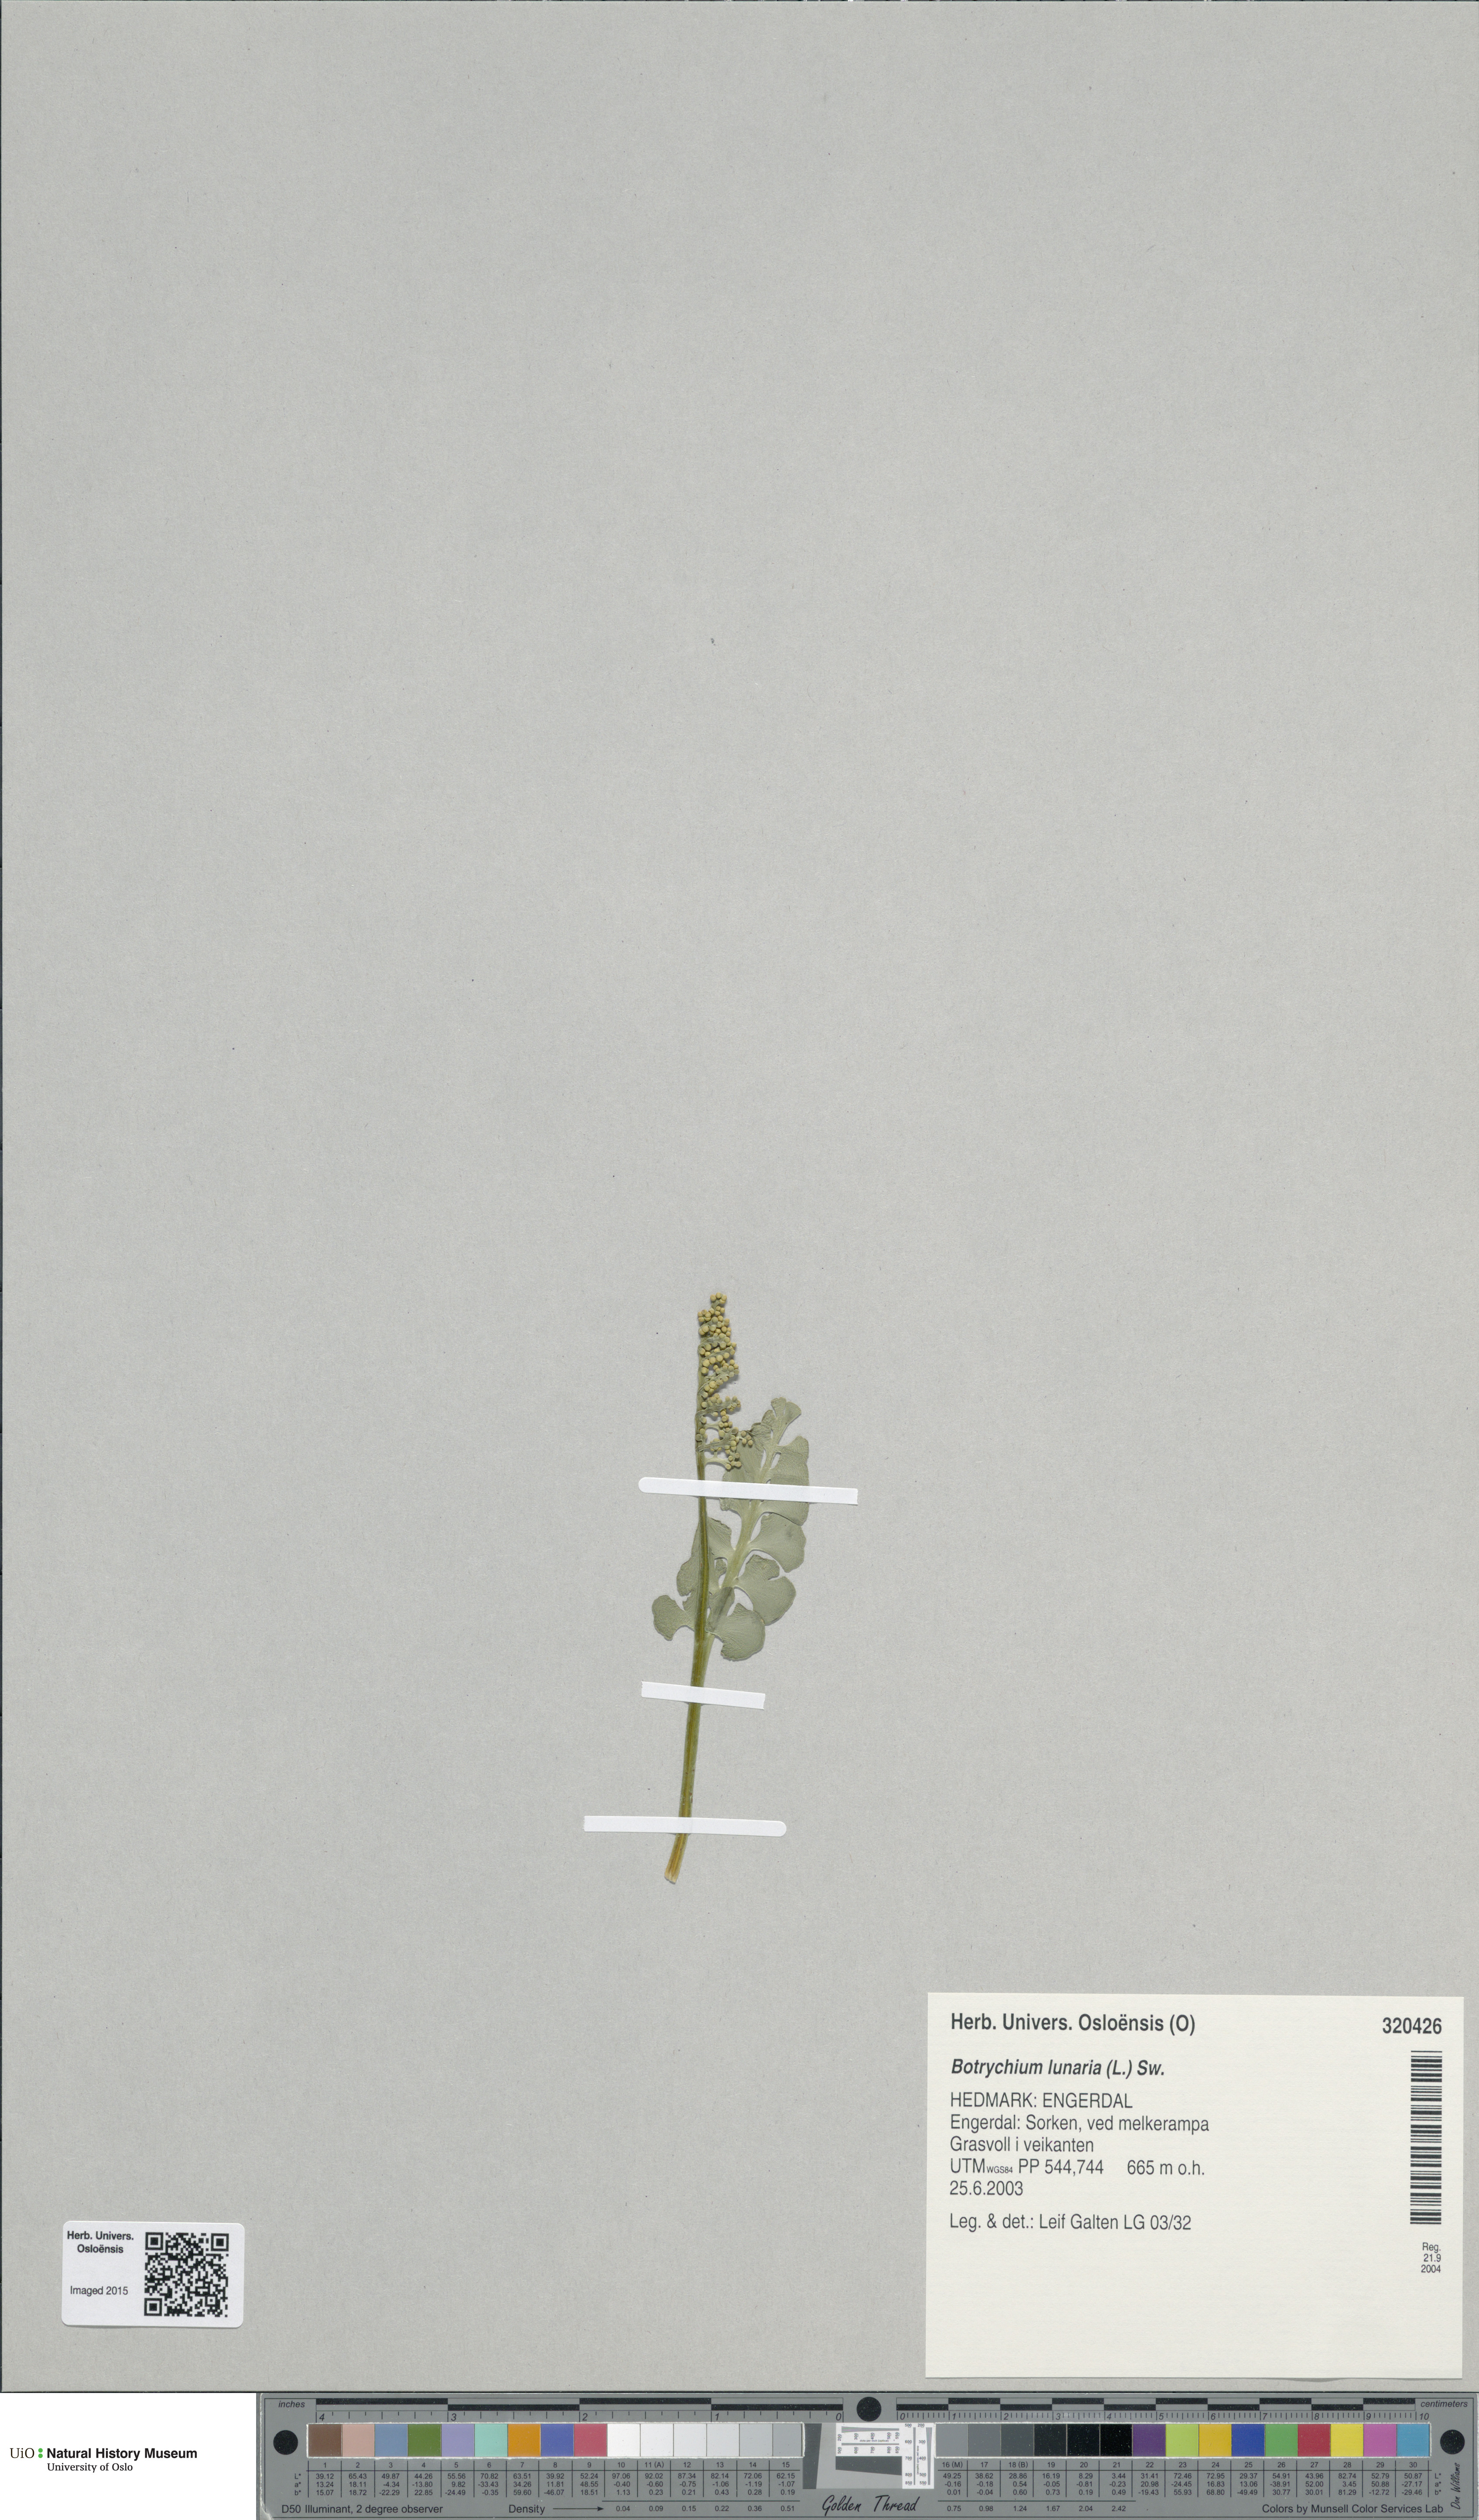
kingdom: Plantae
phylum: Tracheophyta
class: Polypodiopsida
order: Ophioglossales
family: Ophioglossaceae
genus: Botrychium
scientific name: Botrychium lunaria
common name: Moonwort
